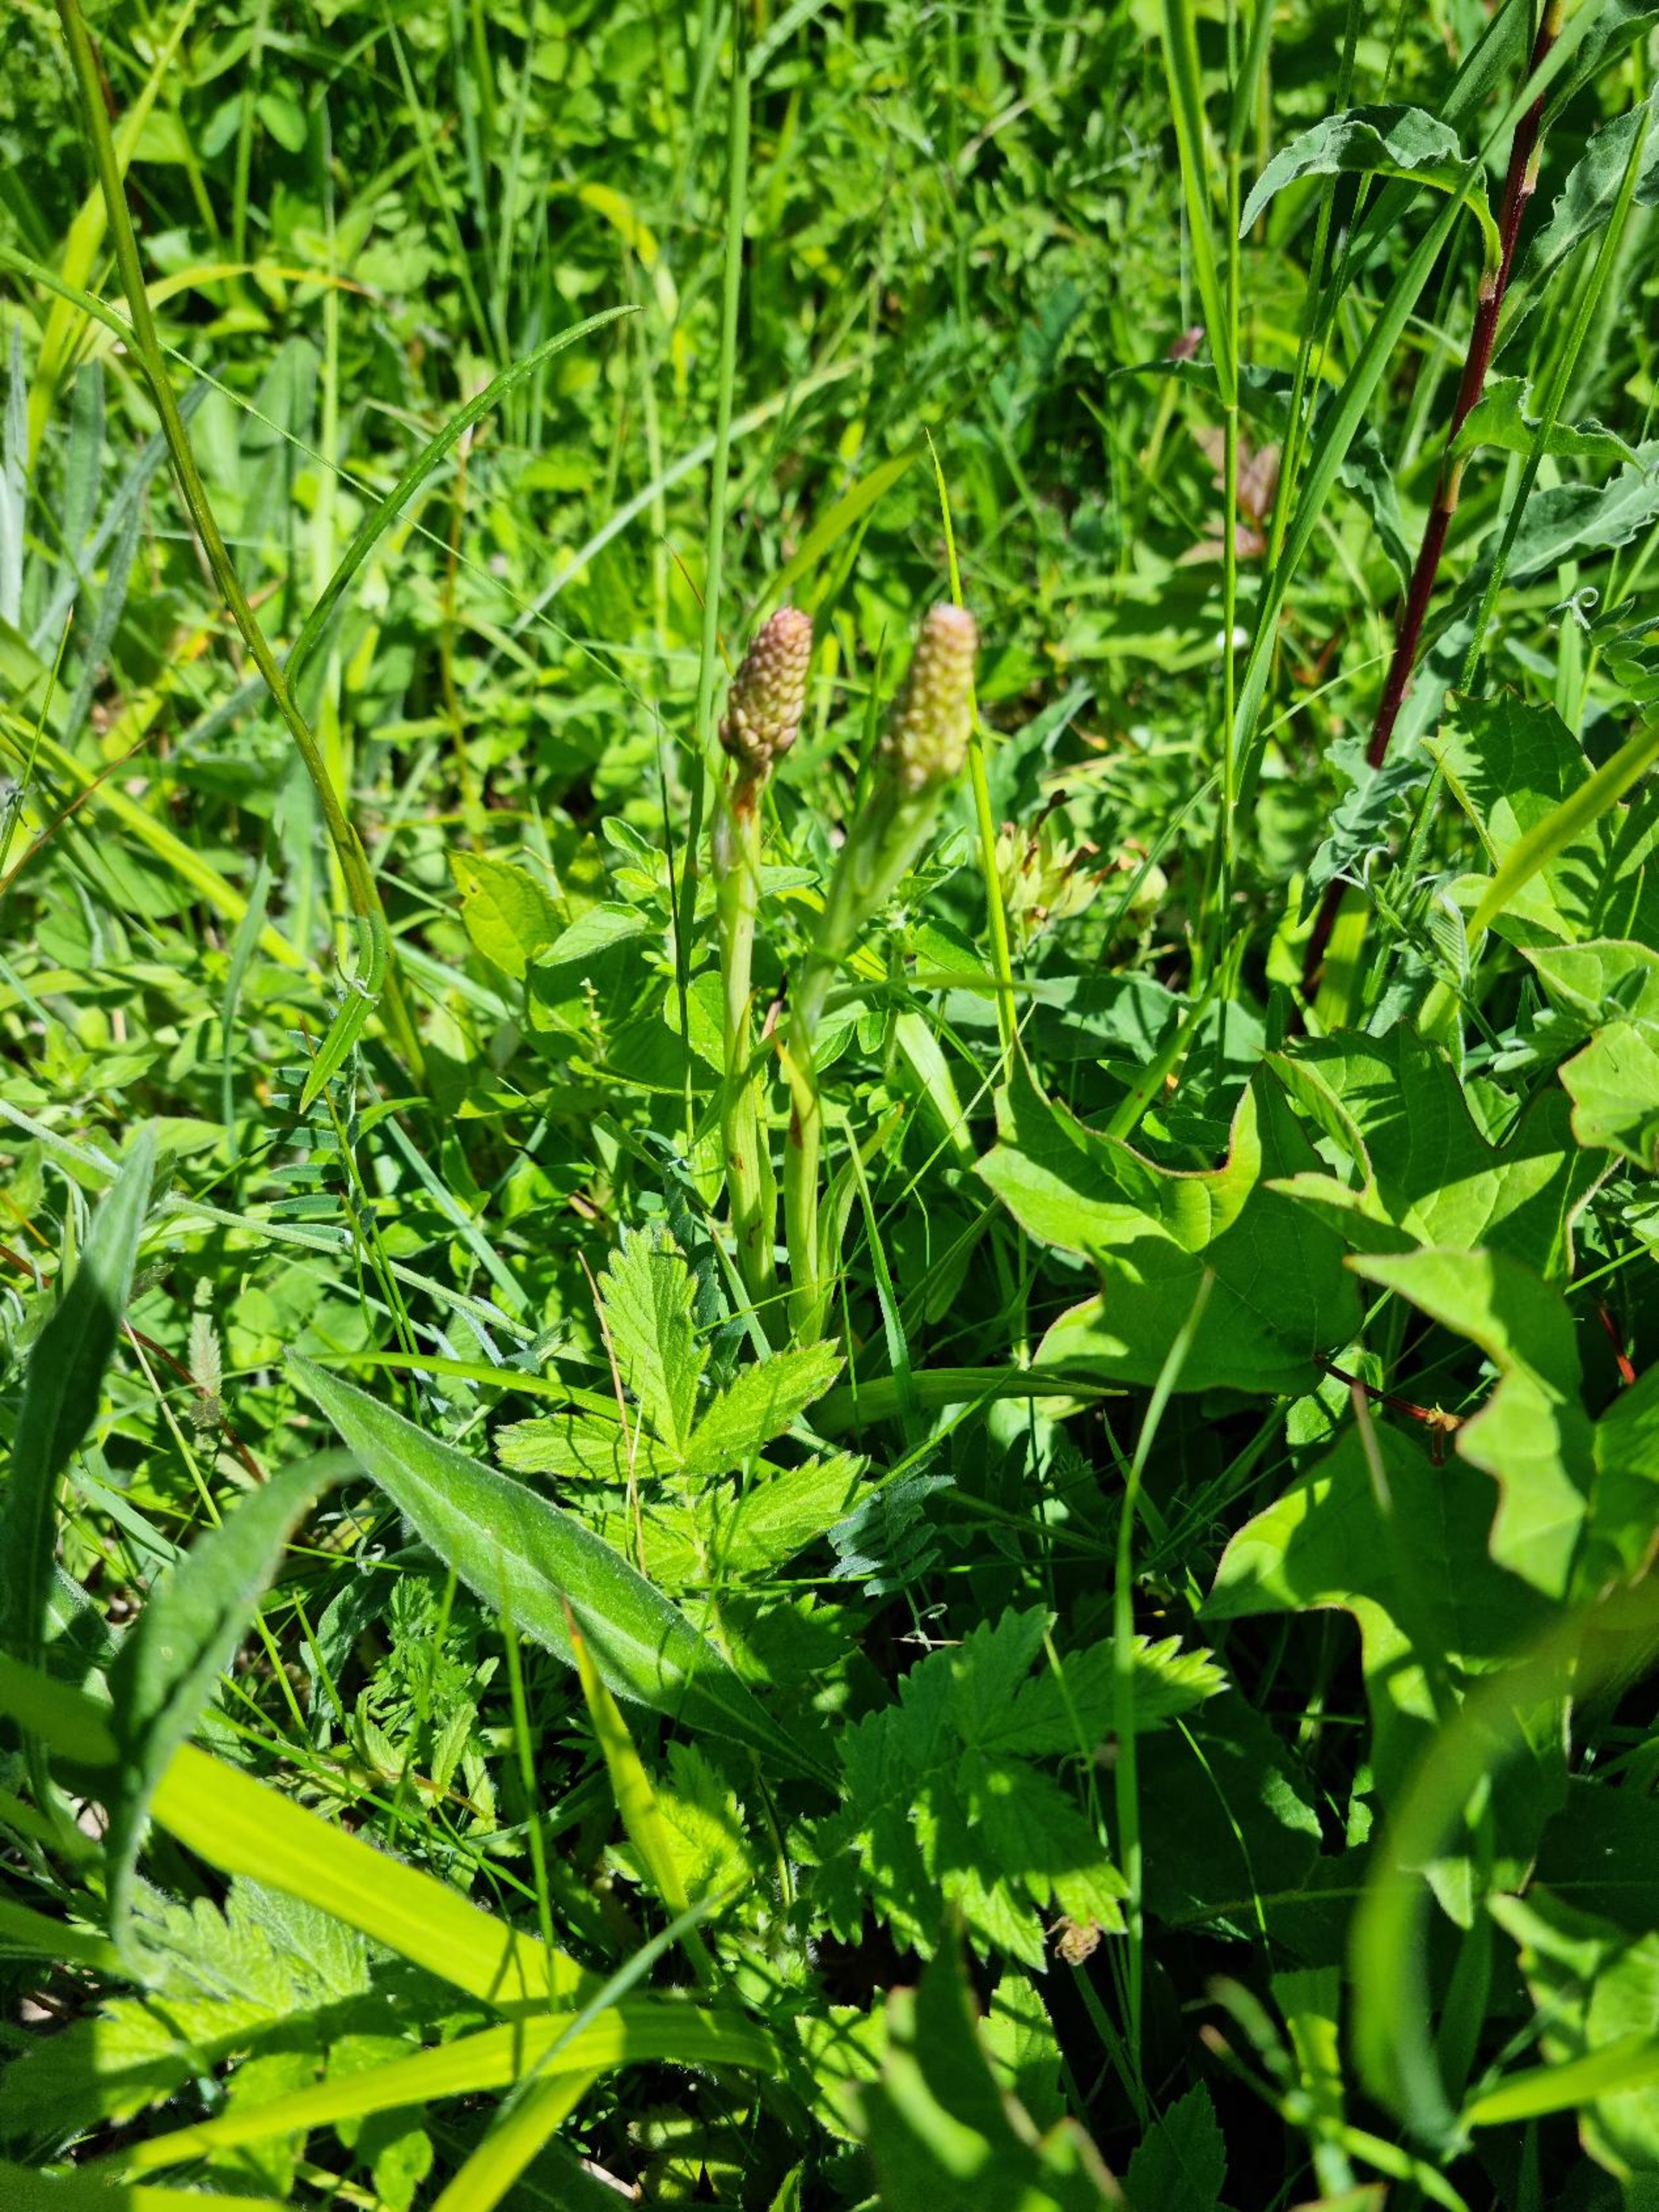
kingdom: Plantae
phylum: Tracheophyta
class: Liliopsida
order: Asparagales
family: Orchidaceae
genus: Anacamptis
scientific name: Anacamptis pyramidalis
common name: Horndrager
